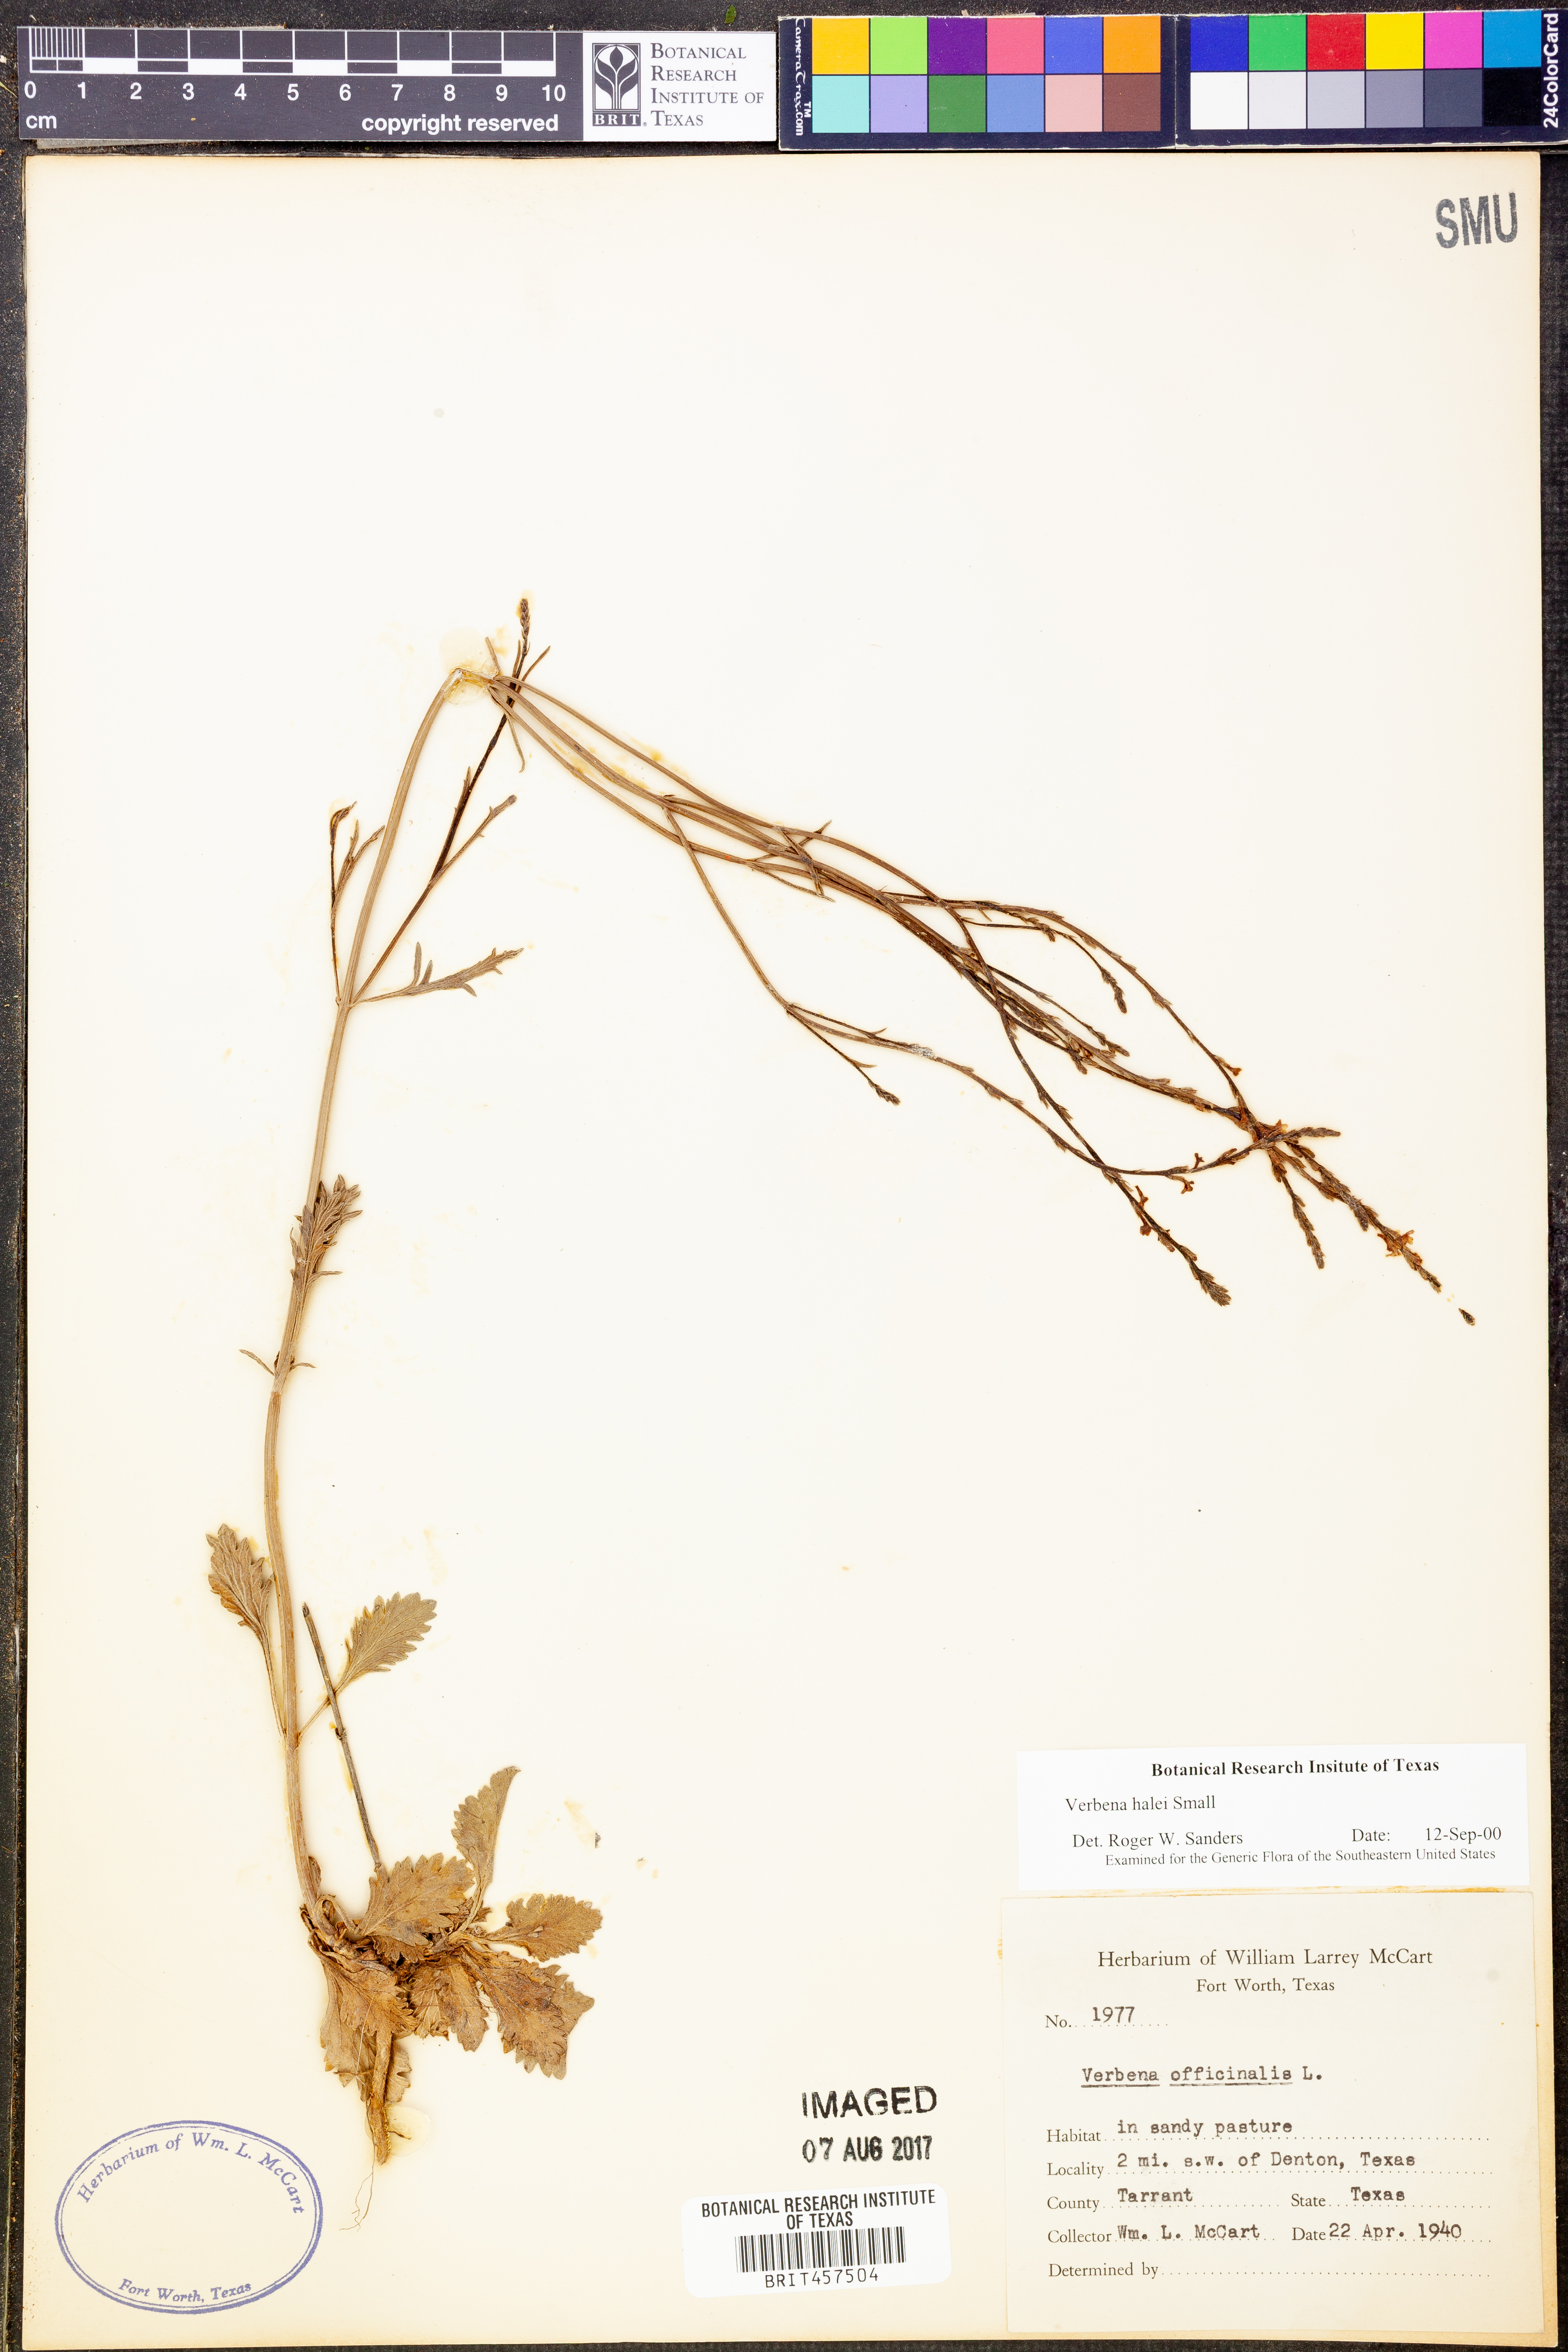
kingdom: Plantae
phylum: Tracheophyta
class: Magnoliopsida
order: Lamiales
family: Verbenaceae
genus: Verbena
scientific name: Verbena halei
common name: Texas vervain
